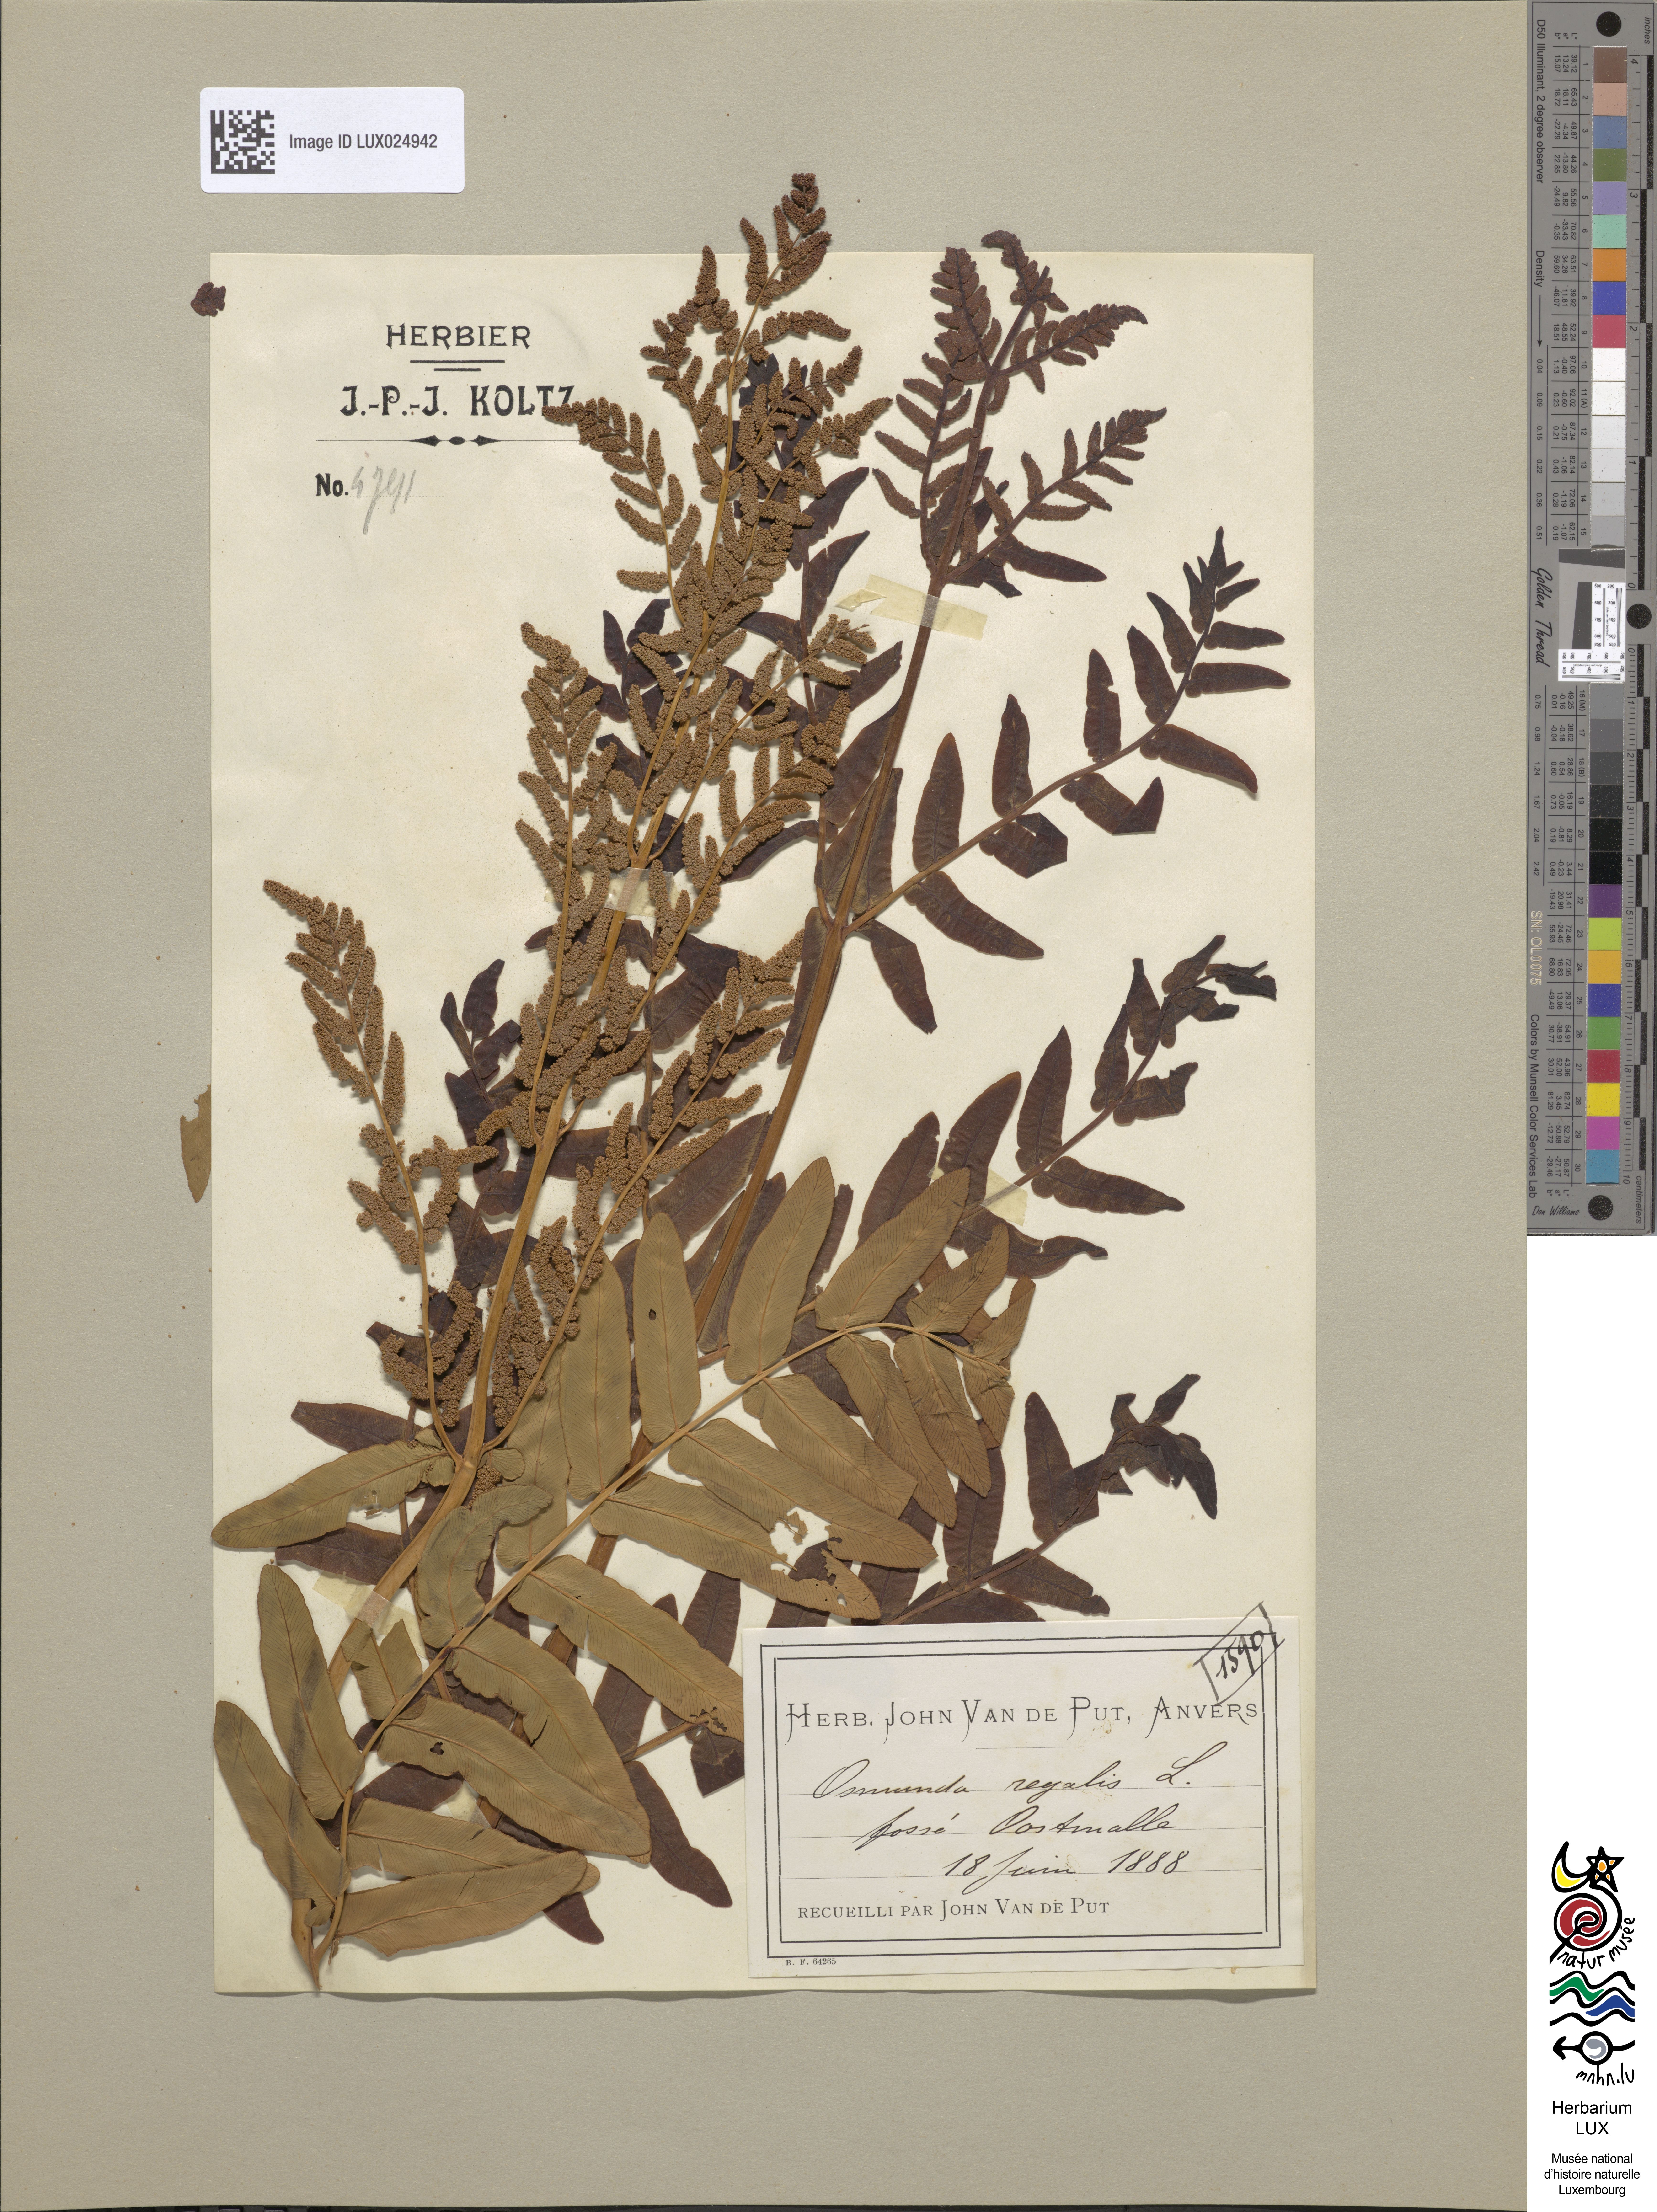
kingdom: Plantae
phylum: Tracheophyta
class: Polypodiopsida
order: Osmundales
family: Osmundaceae
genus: Osmunda
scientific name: Osmunda regalis
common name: Royal fern
